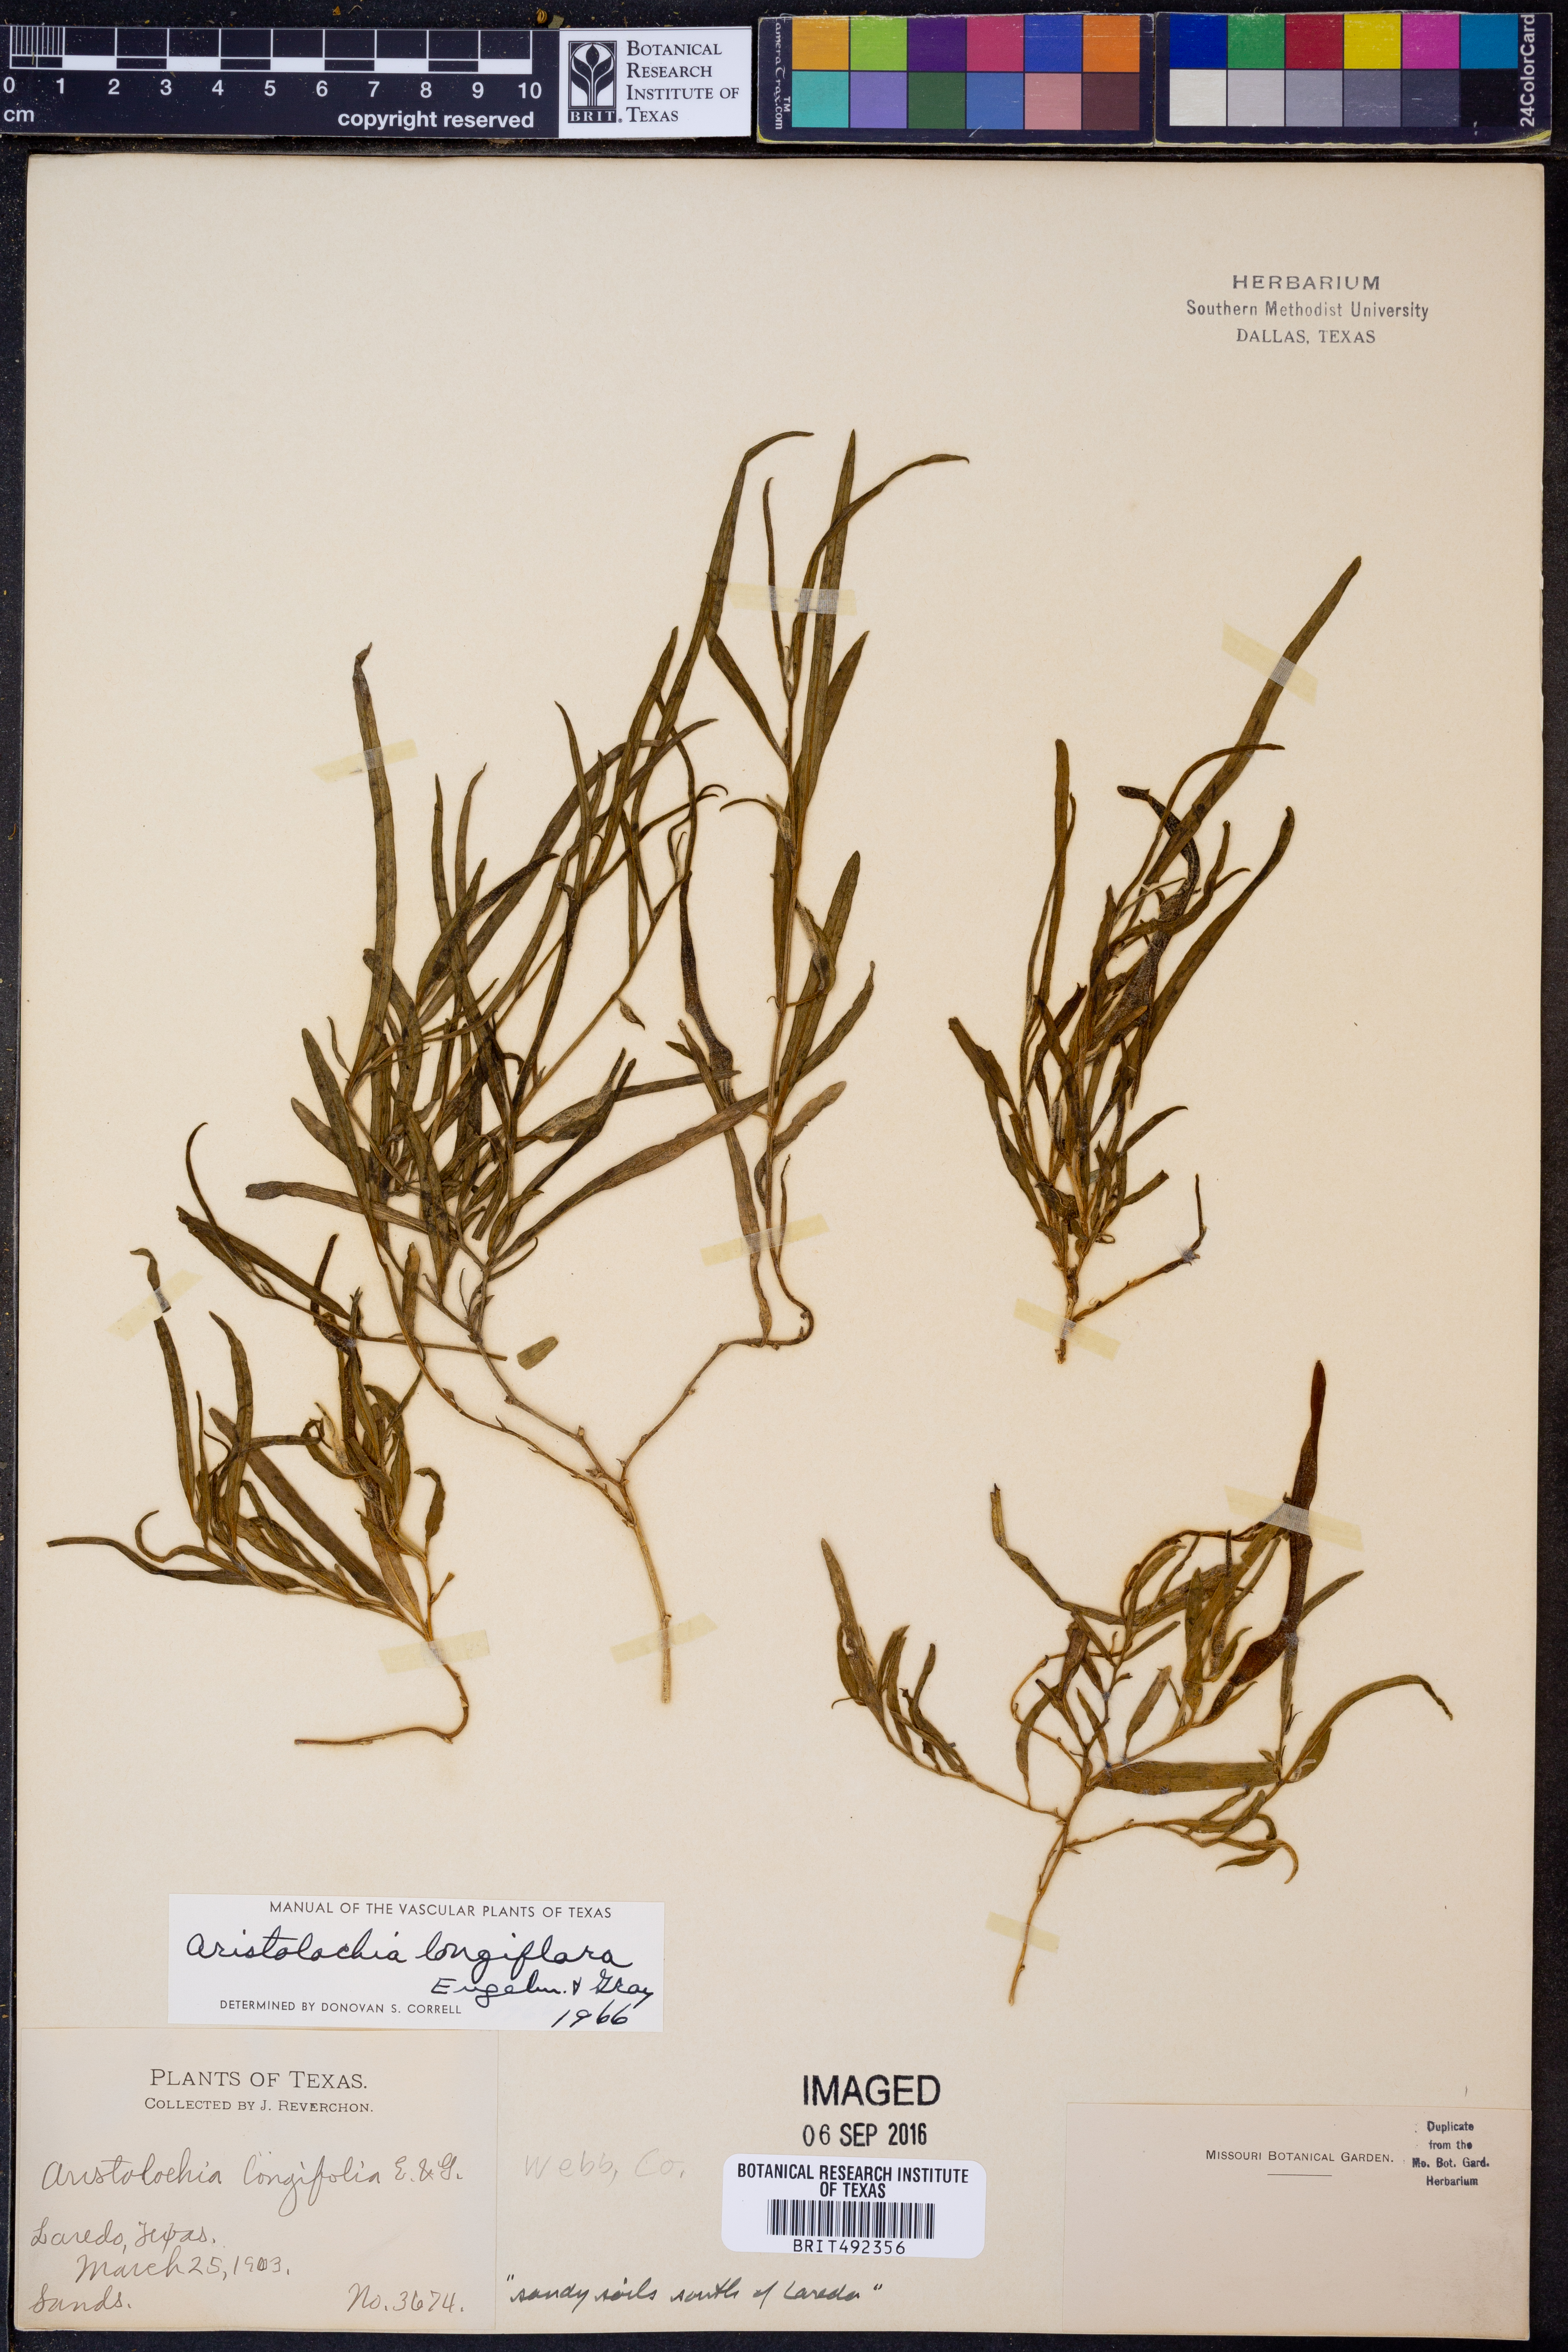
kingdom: Plantae
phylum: Tracheophyta
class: Magnoliopsida
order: Piperales
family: Aristolochiaceae
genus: Aristolochia
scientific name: Aristolochia erecta
